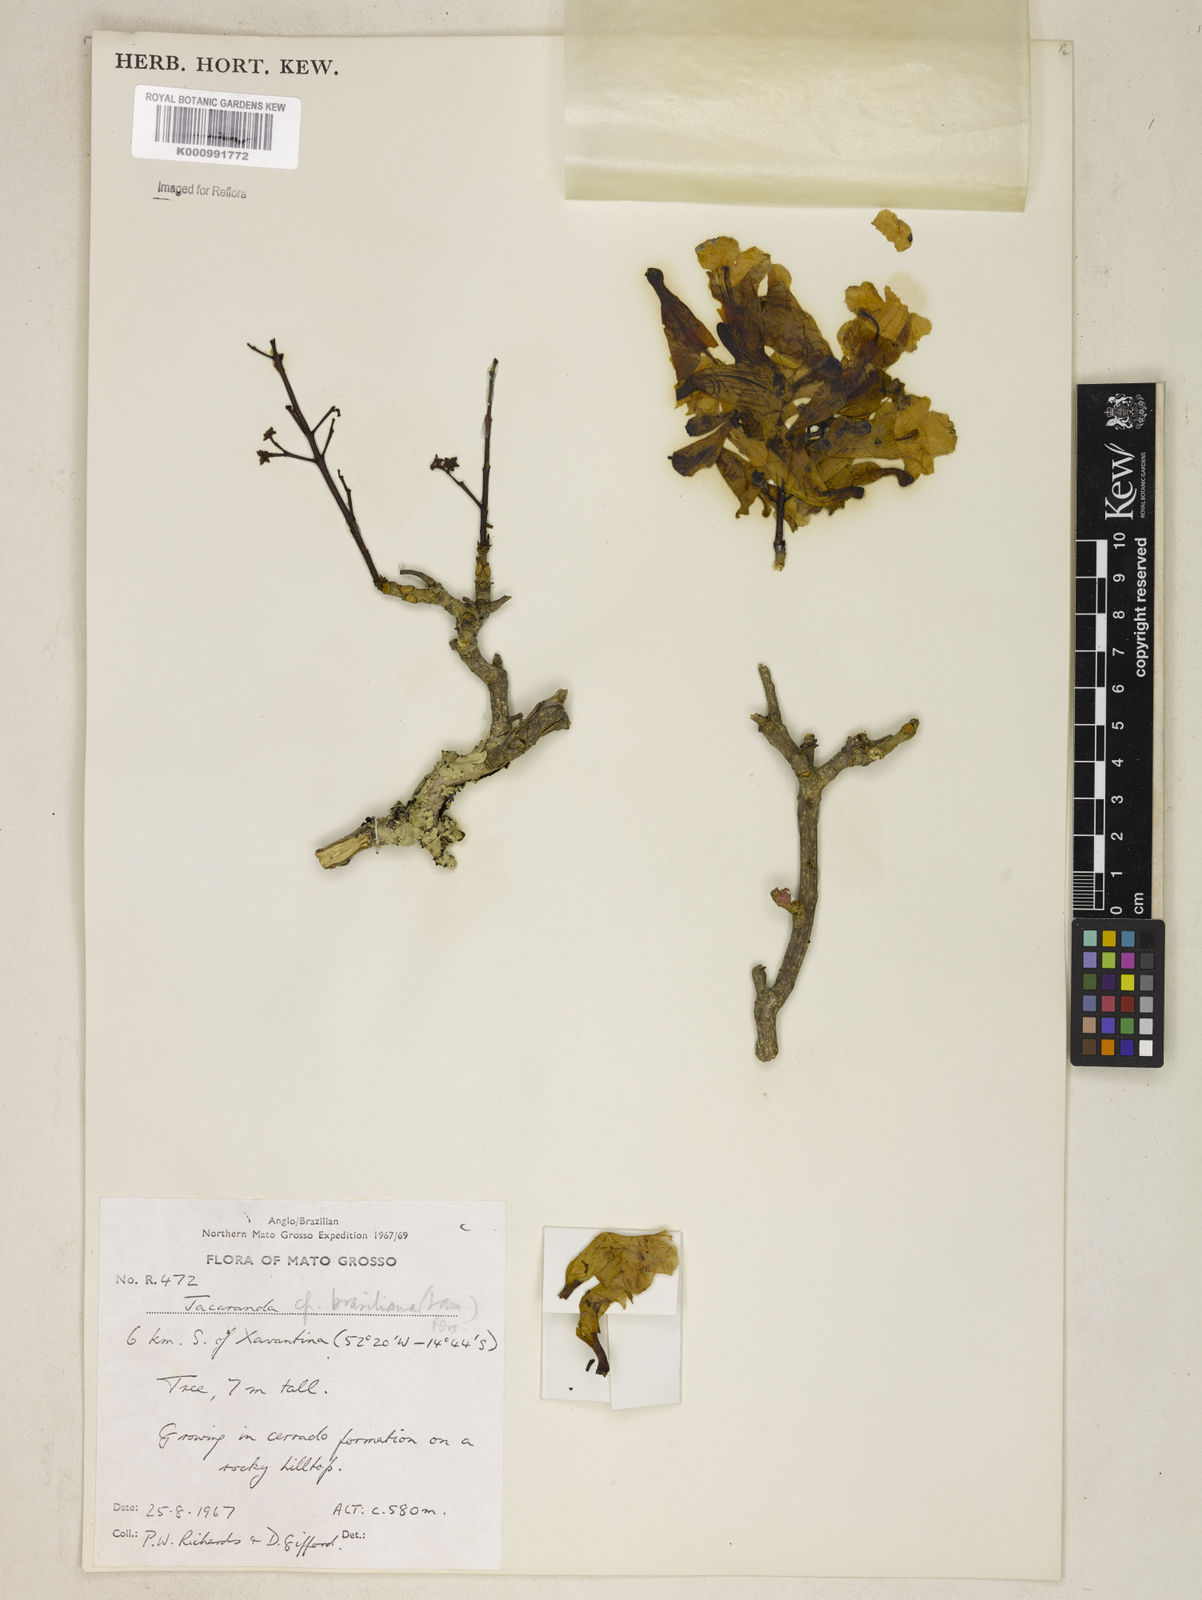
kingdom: Plantae
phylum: Tracheophyta
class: Magnoliopsida
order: Lamiales
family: Bignoniaceae
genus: Jacaranda
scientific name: Jacaranda brasiliana
